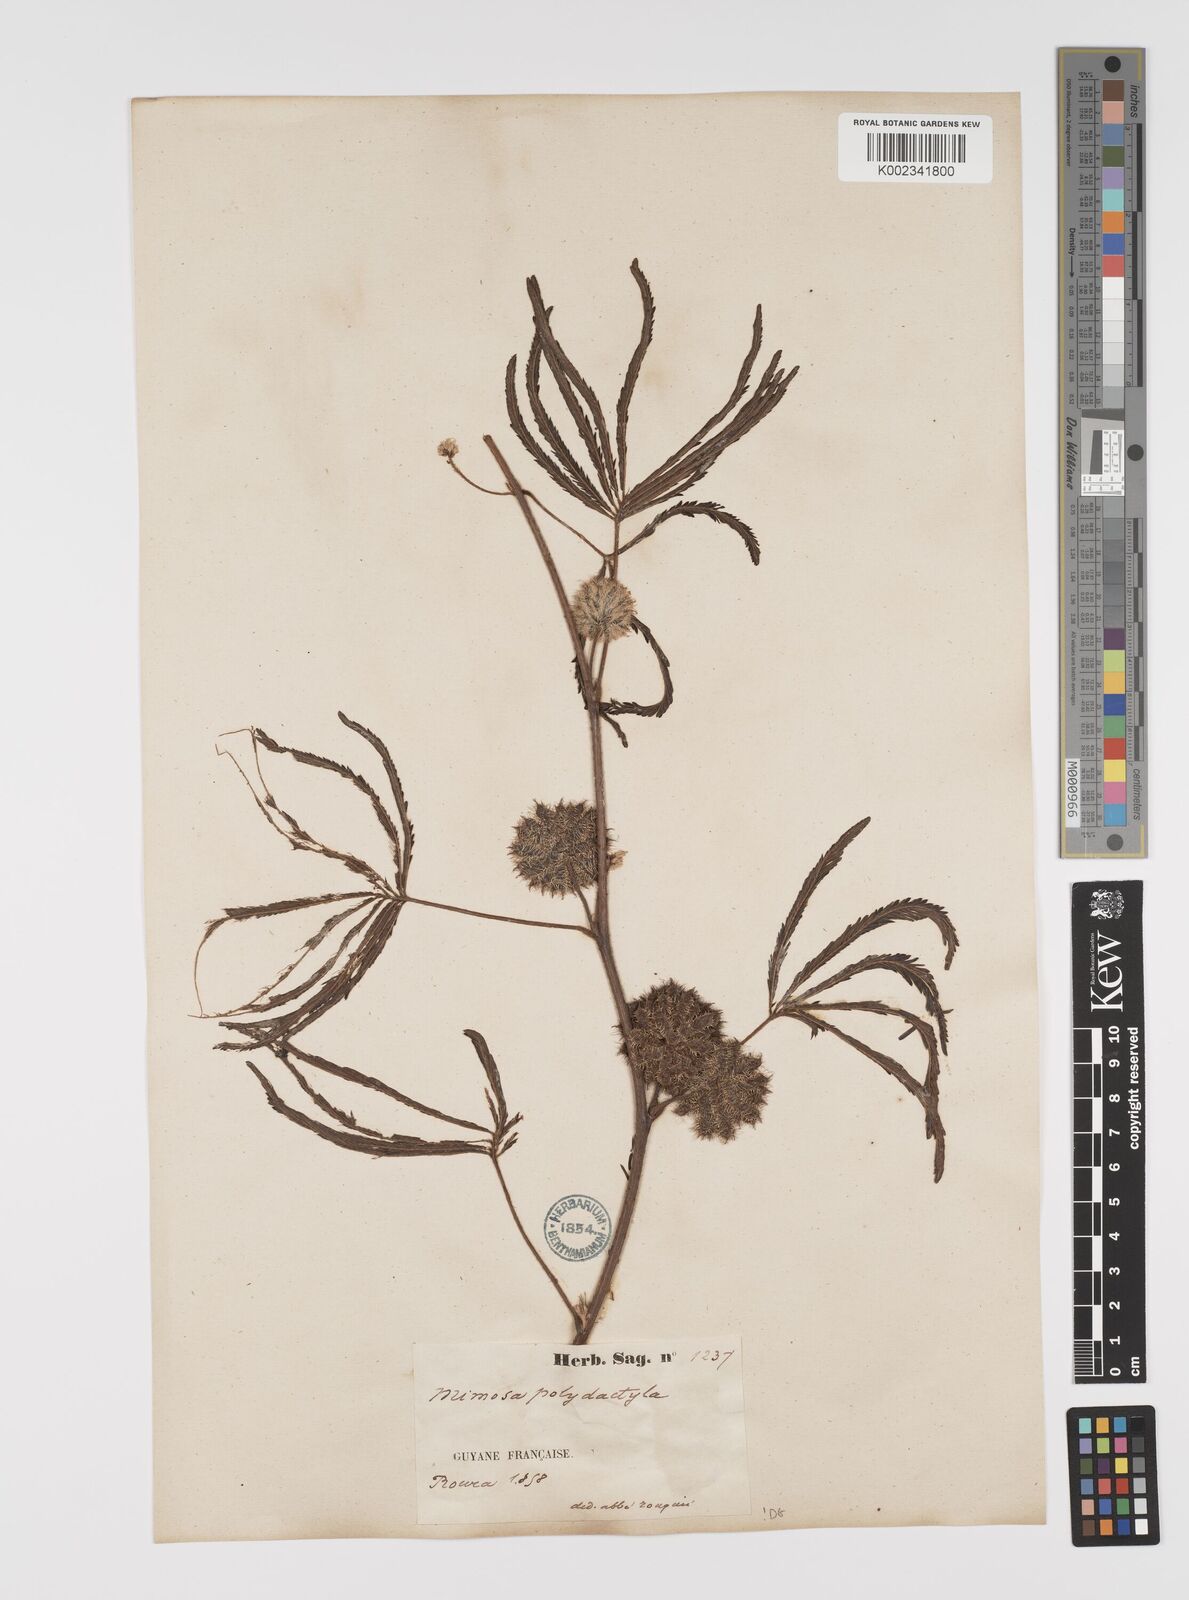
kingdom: Plantae
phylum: Tracheophyta
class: Magnoliopsida
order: Fabales
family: Fabaceae
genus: Mimosa
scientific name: Mimosa polydactyla
